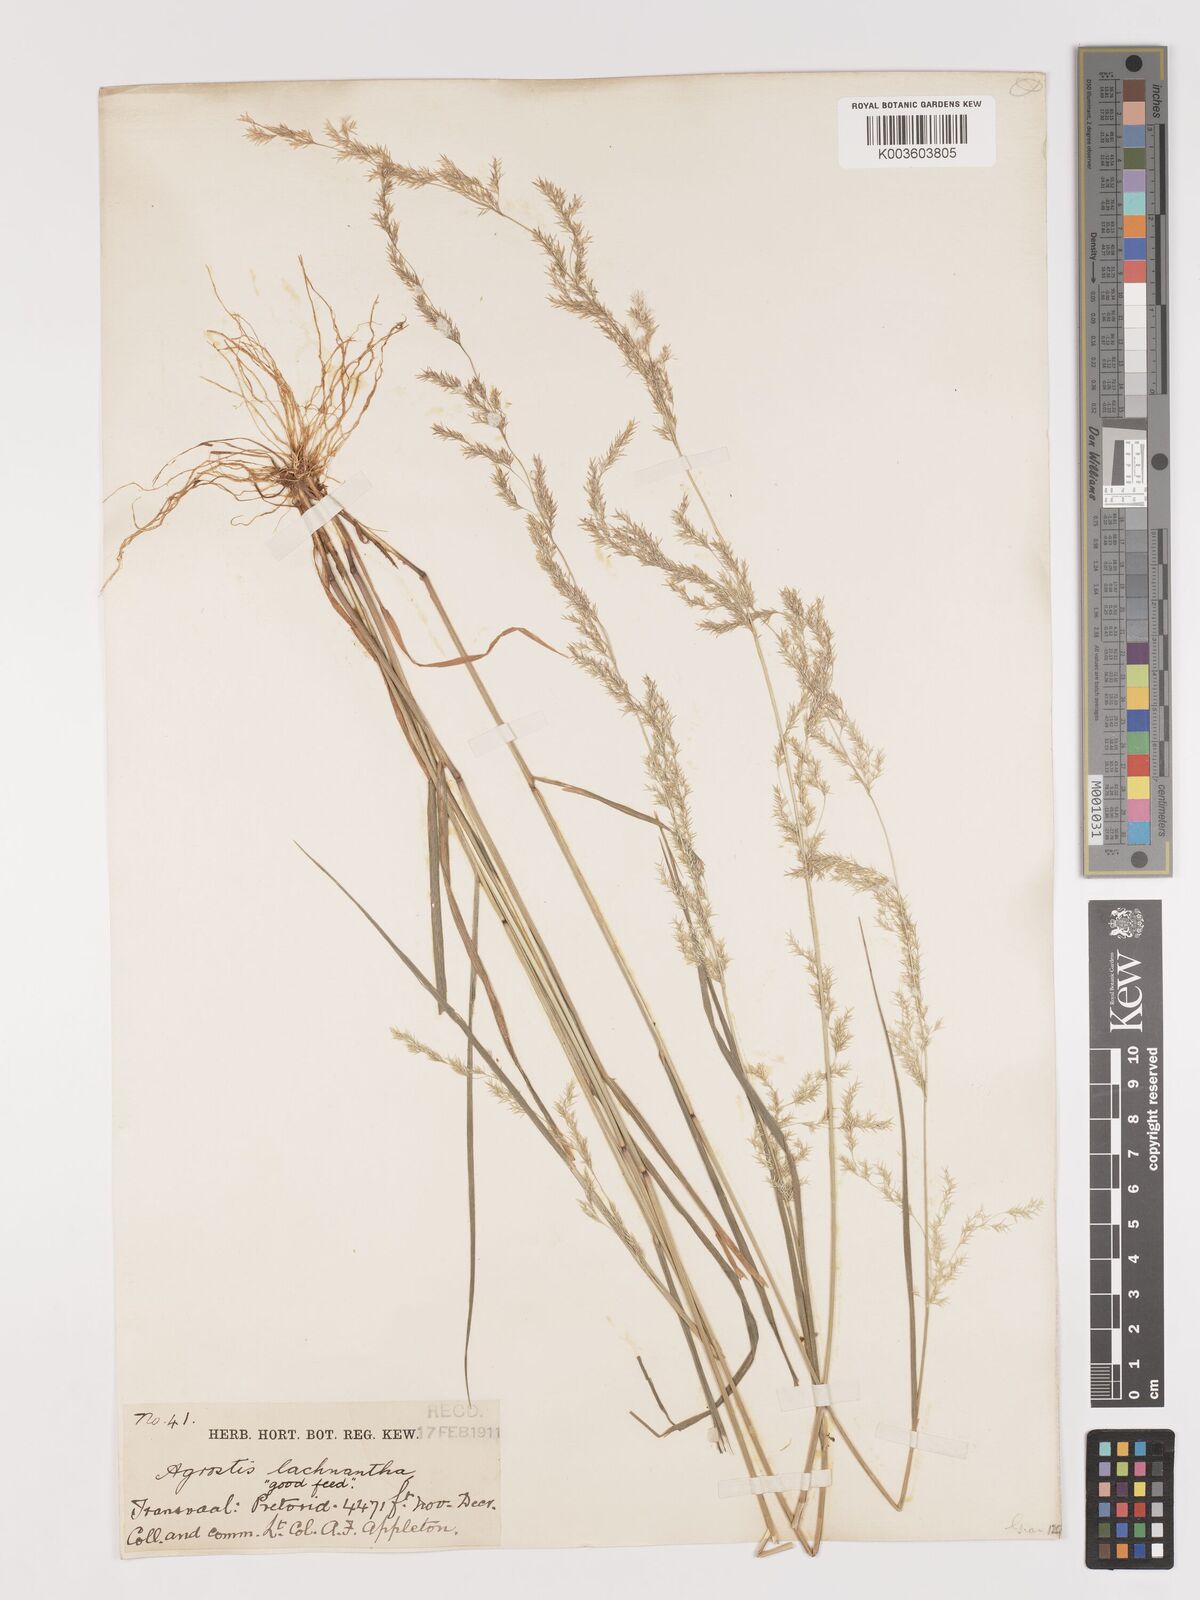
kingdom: Plantae
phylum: Tracheophyta
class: Liliopsida
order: Poales
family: Poaceae
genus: Lachnagrostis
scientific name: Lachnagrostis lachnantha
